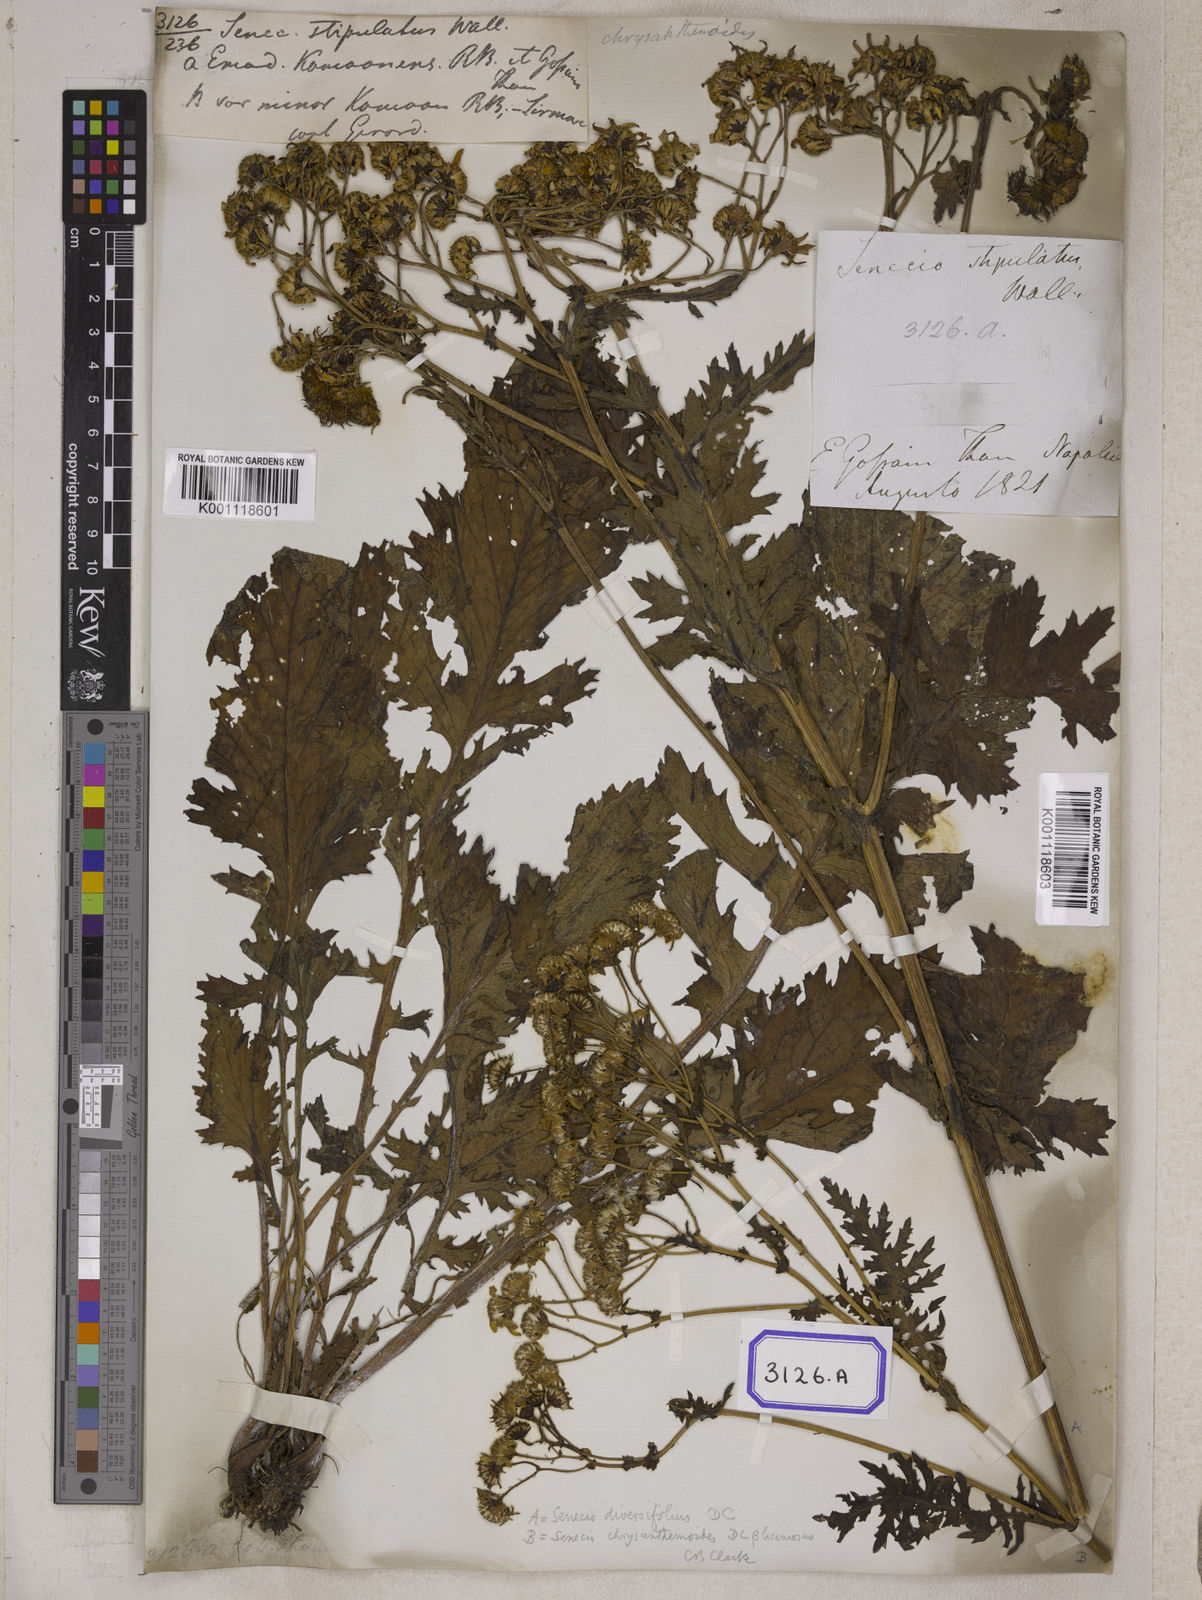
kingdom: Plantae
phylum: Tracheophyta
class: Magnoliopsida
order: Asterales
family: Asteraceae
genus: Senecio
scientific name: Senecio
